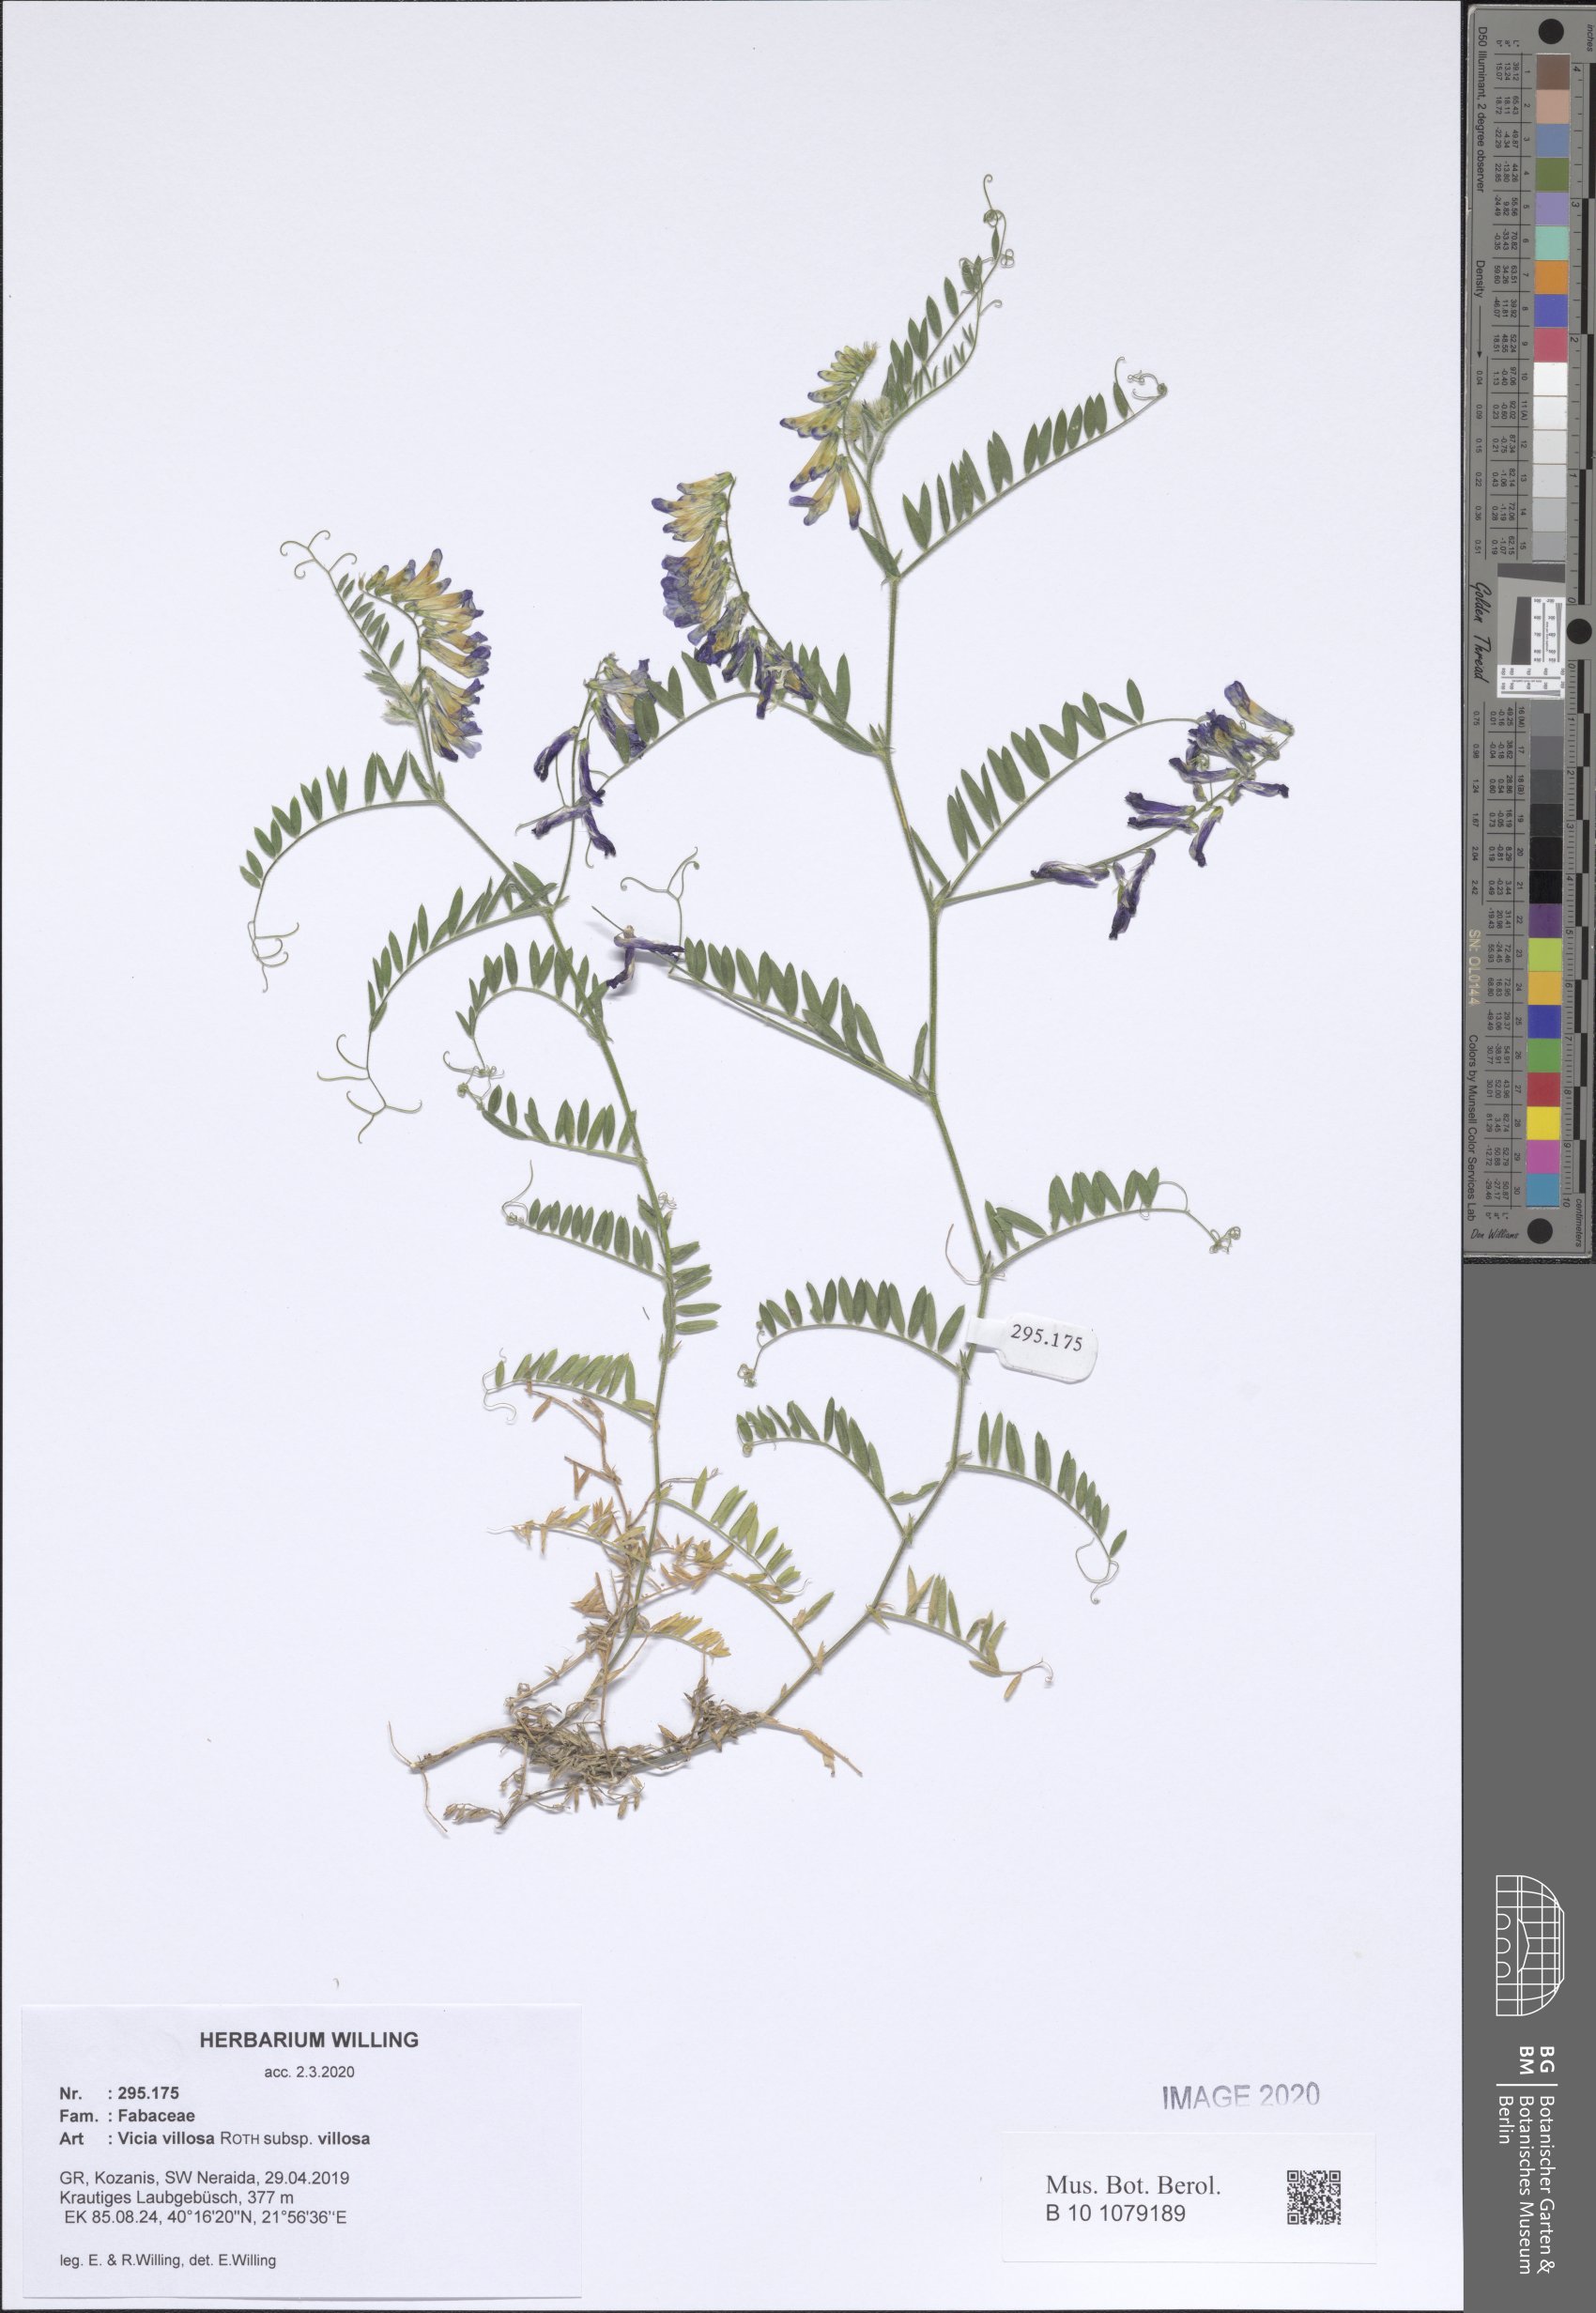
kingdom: Plantae
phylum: Tracheophyta
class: Magnoliopsida
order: Fabales
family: Fabaceae
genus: Vicia
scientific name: Vicia villosa
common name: Fodder vetch
